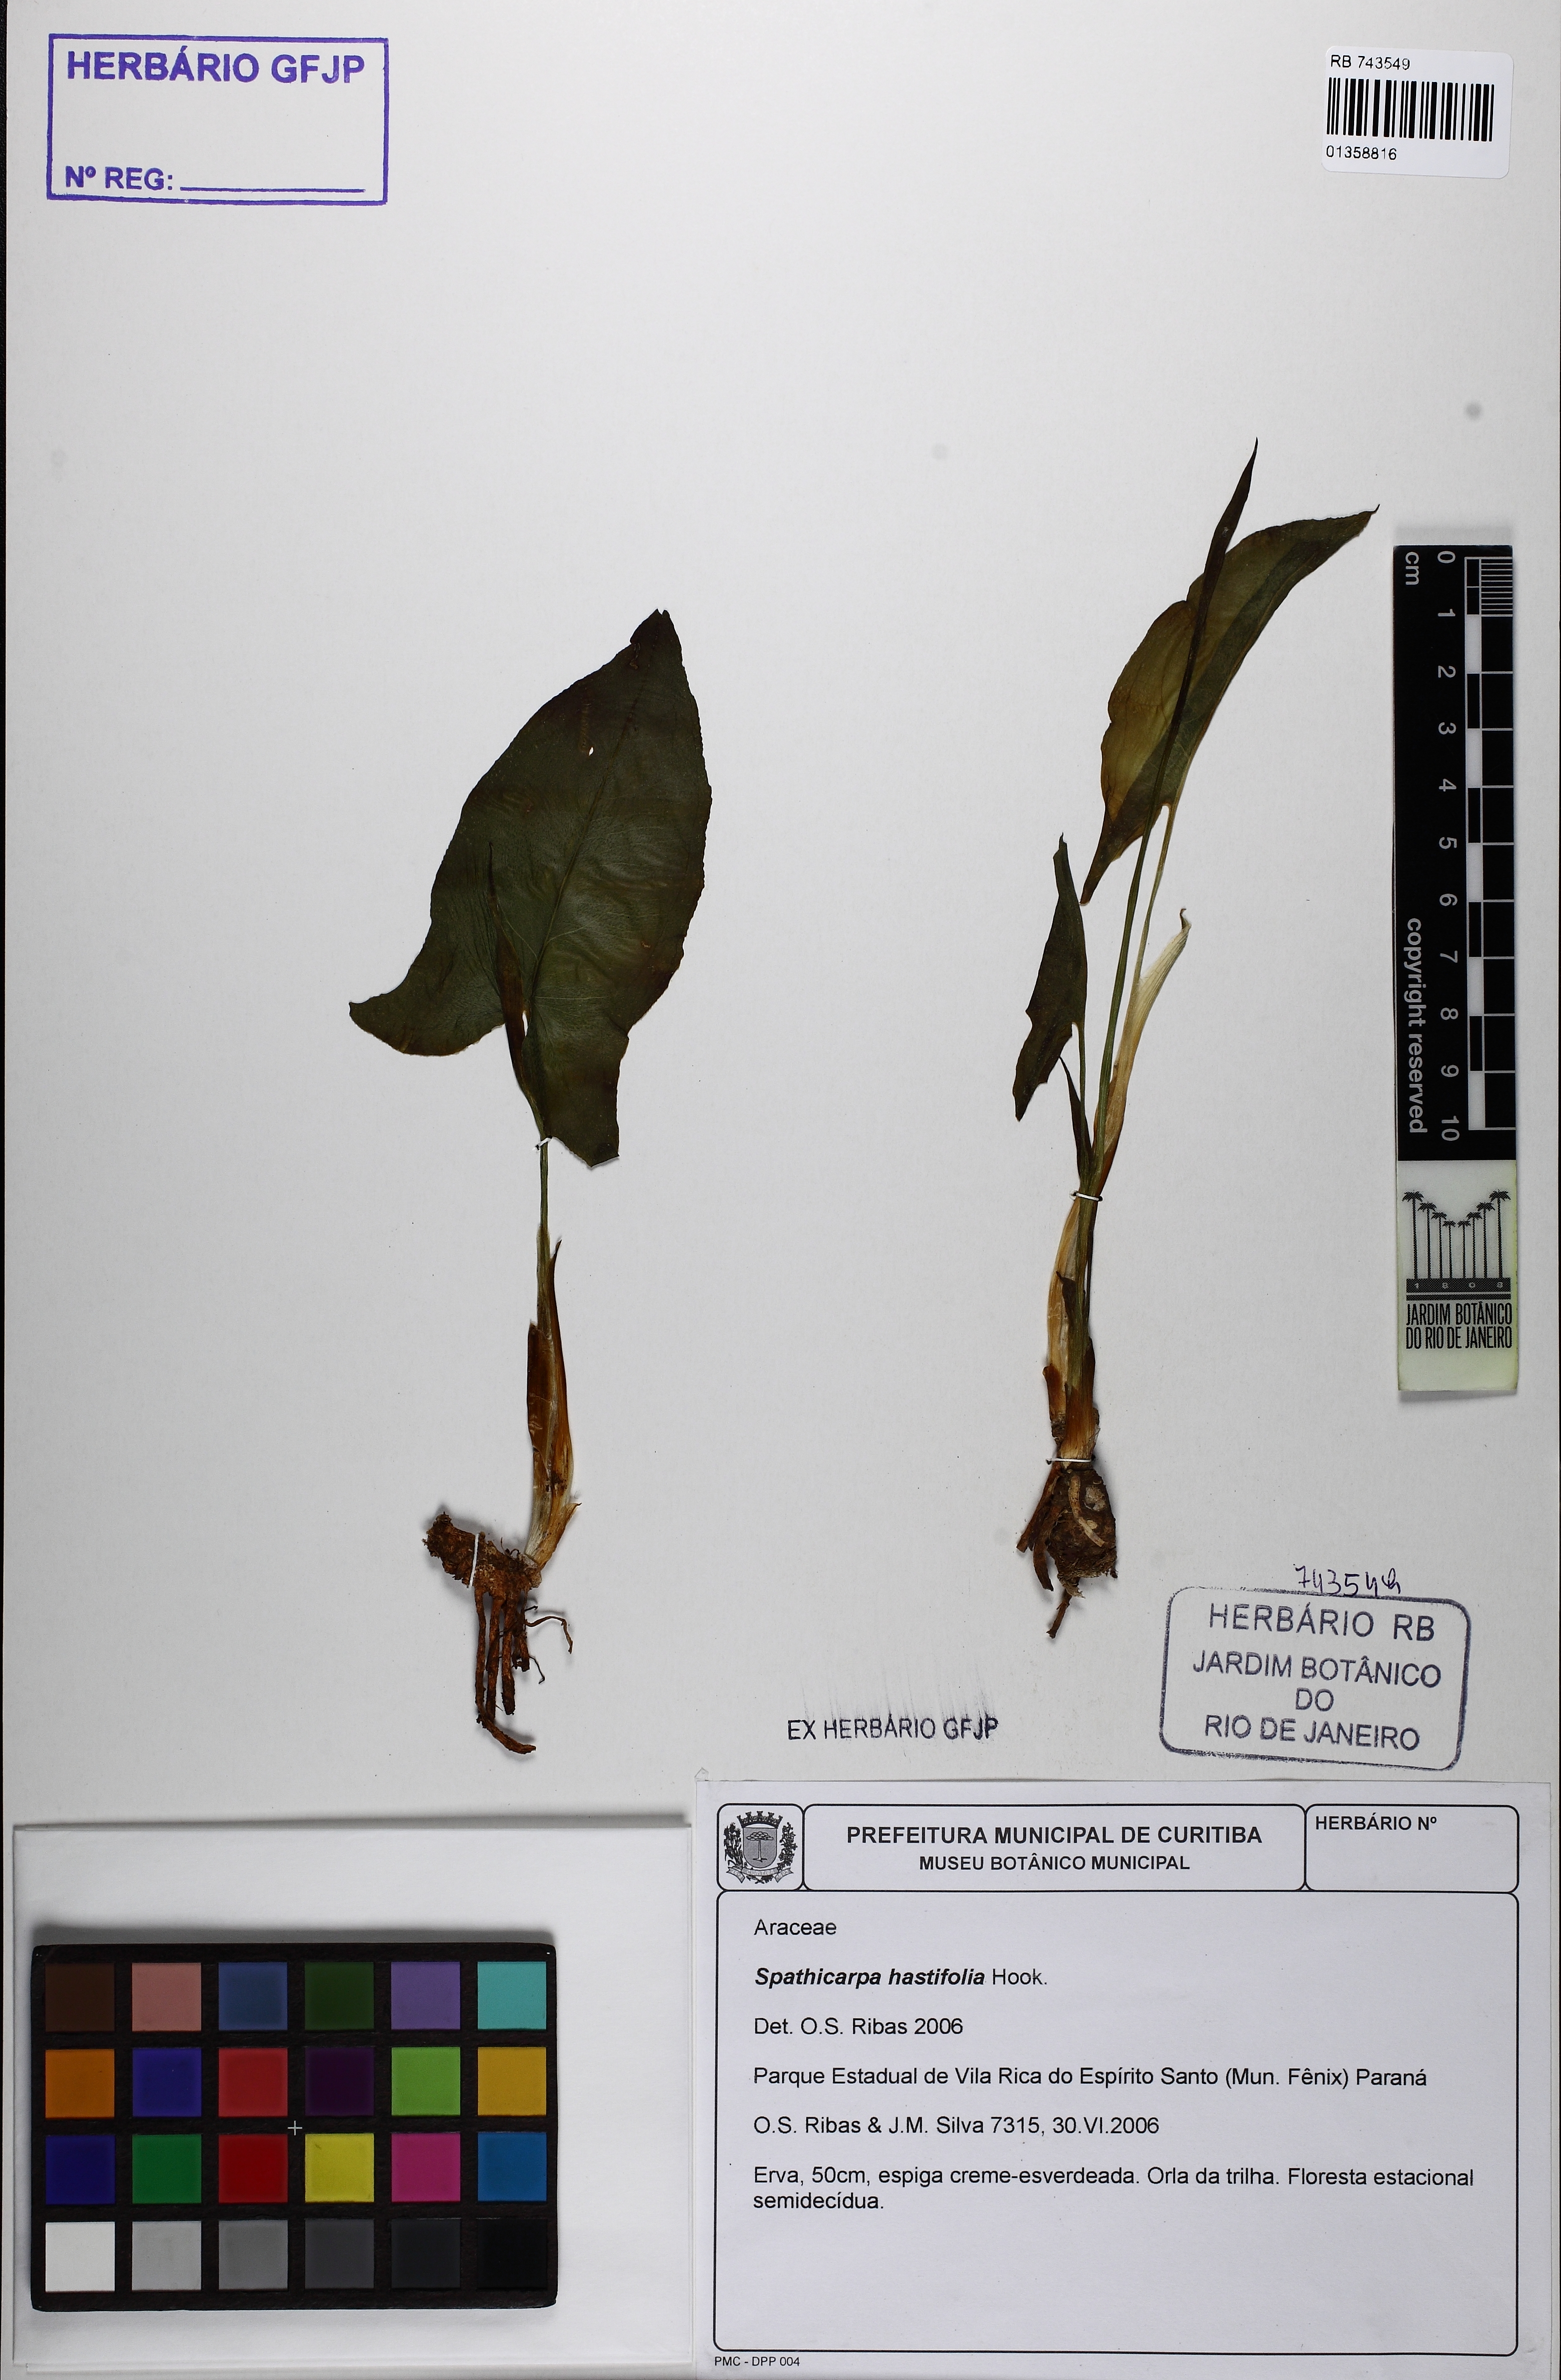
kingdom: Plantae
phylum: Tracheophyta
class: Liliopsida
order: Alismatales
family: Araceae
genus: Spathicarpa
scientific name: Spathicarpa hastifolia
